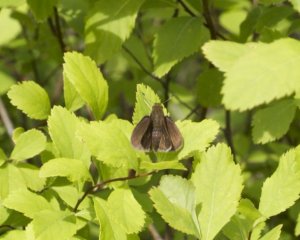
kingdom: Animalia
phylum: Arthropoda
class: Insecta
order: Lepidoptera
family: Hesperiidae
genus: Euphyes
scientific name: Euphyes vestris
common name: Dun Skipper
